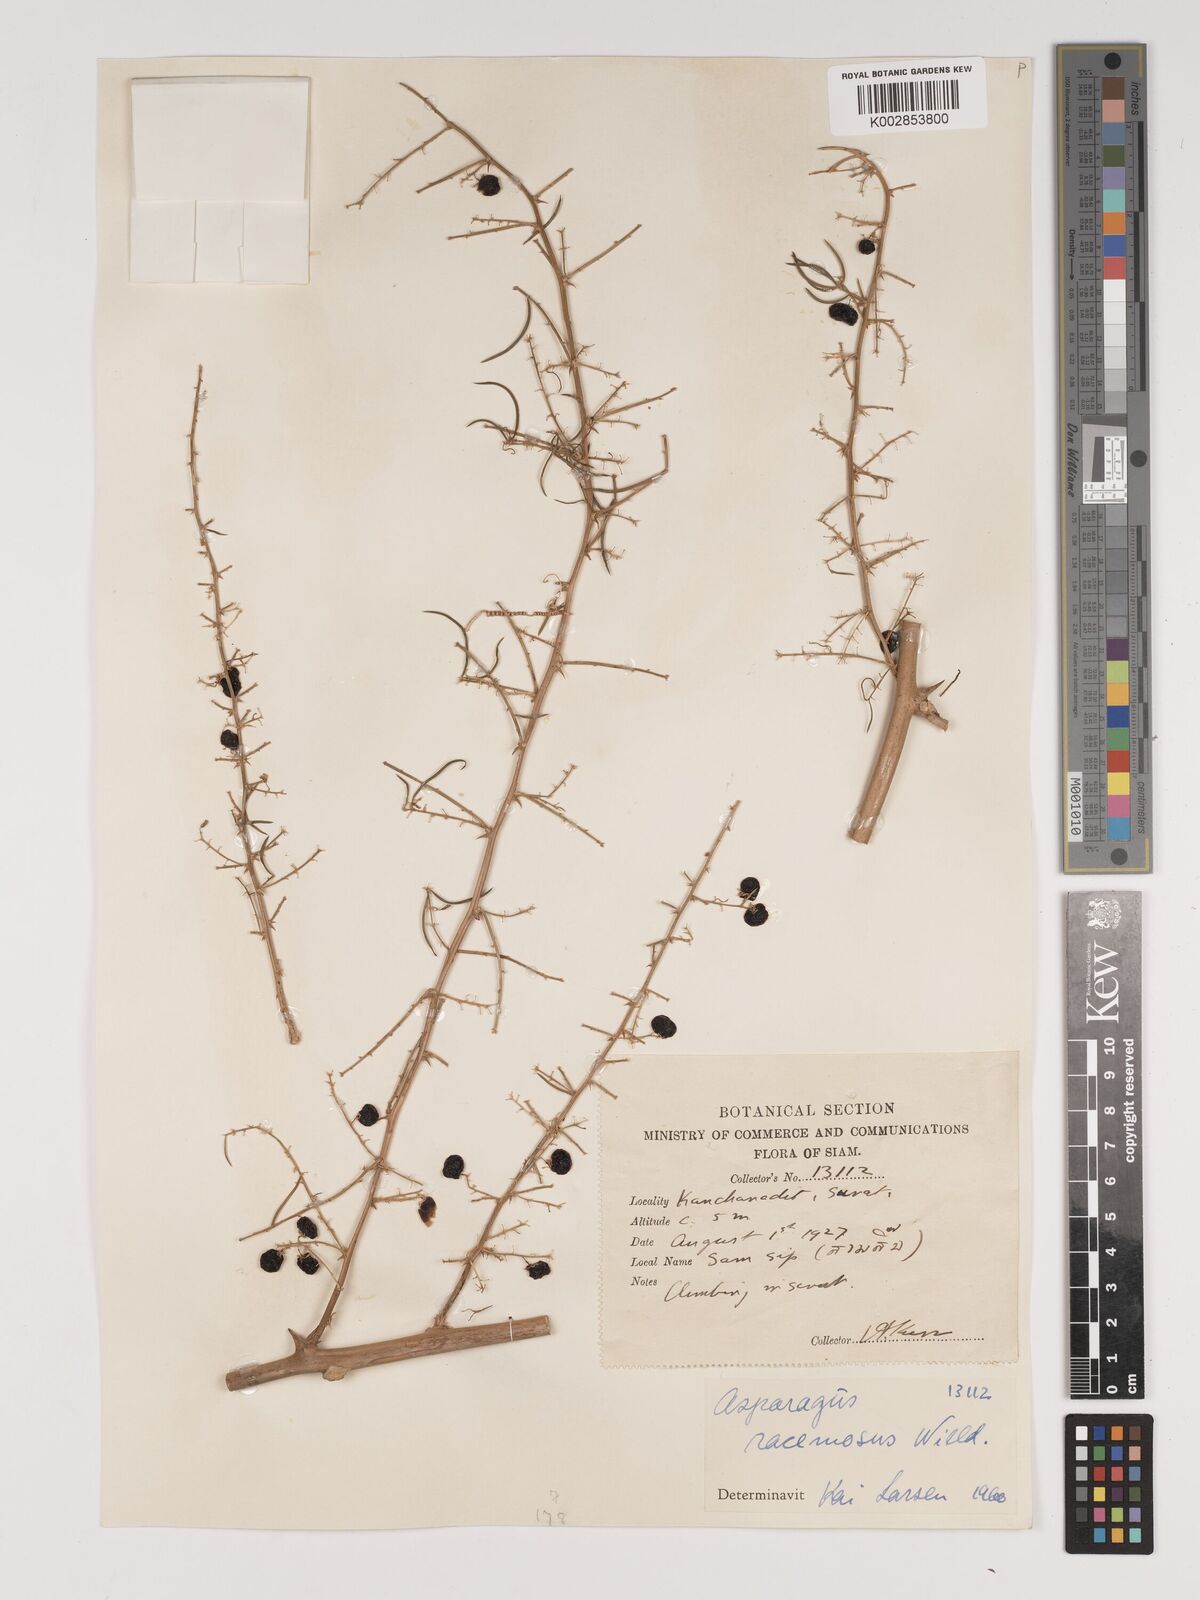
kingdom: Plantae
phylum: Tracheophyta
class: Liliopsida
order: Asparagales
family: Asparagaceae
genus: Asparagus
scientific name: Asparagus racemosus
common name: Asparagus-fern
